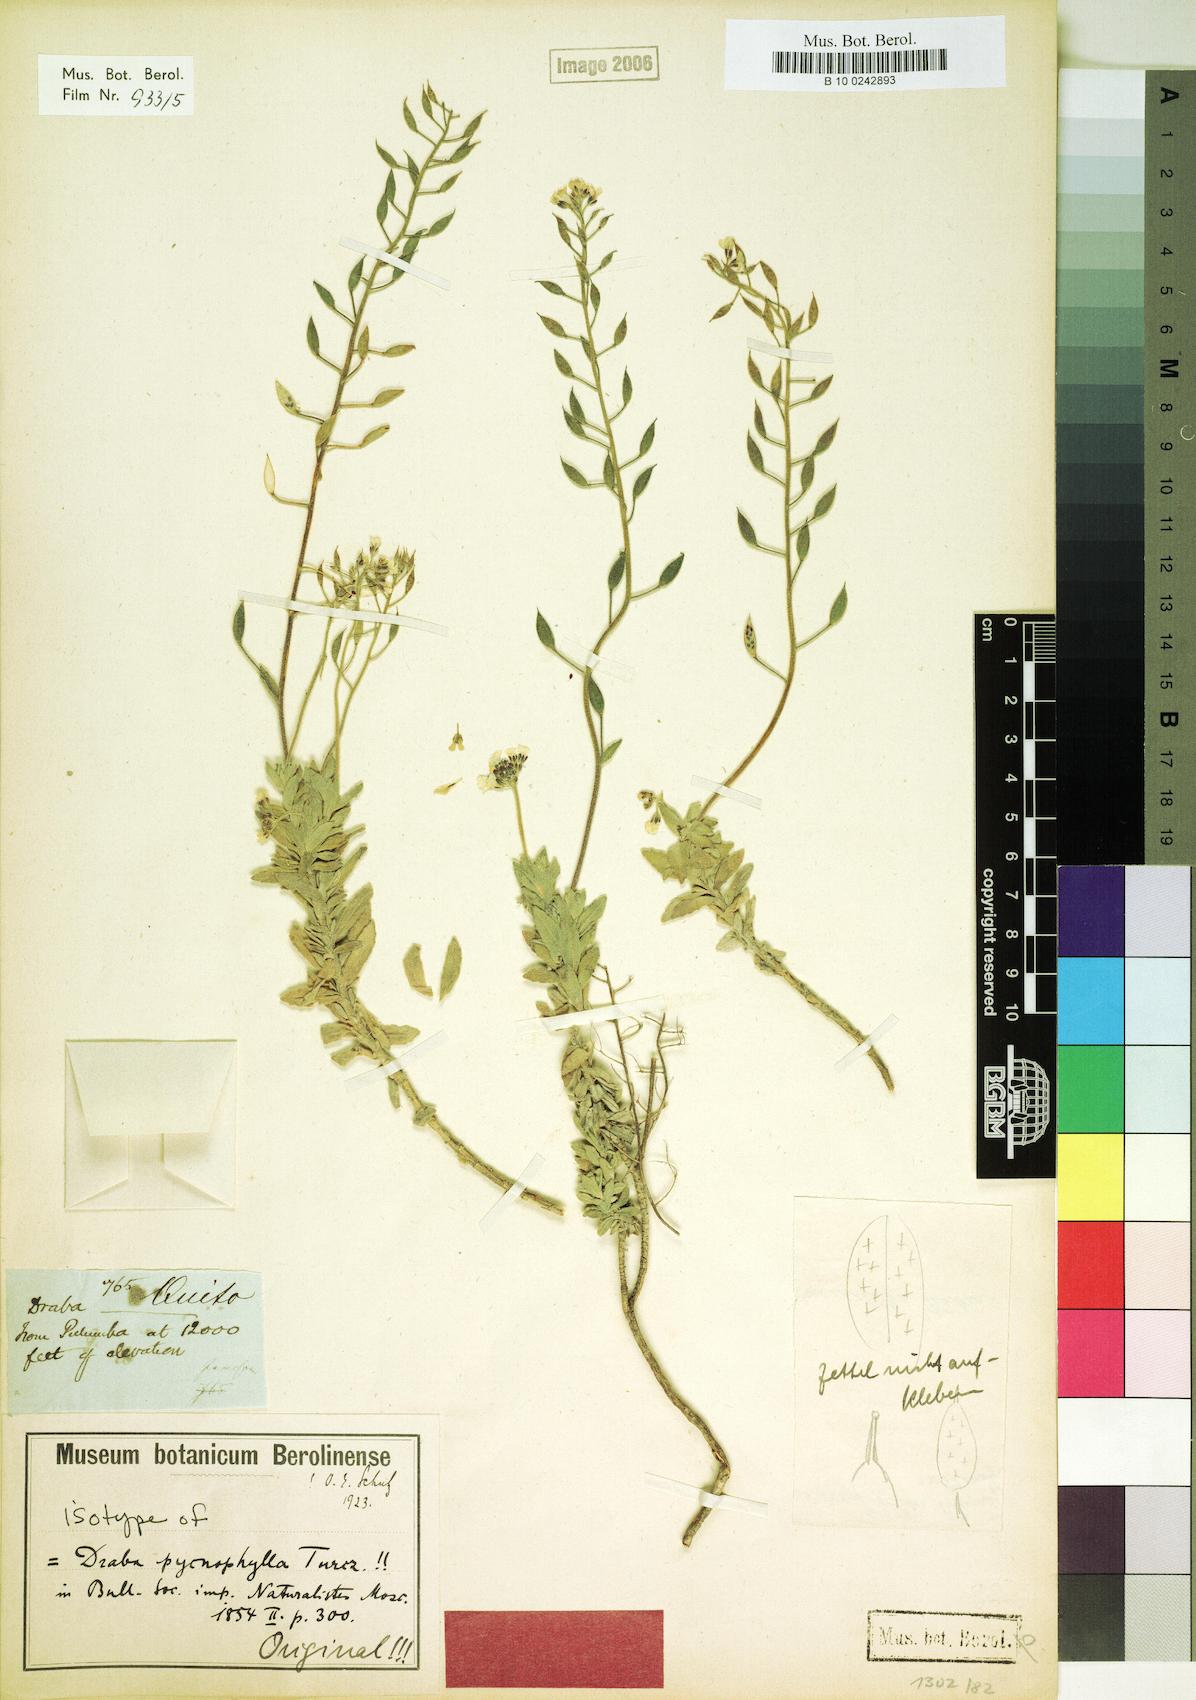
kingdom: Plantae
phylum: Tracheophyta
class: Magnoliopsida
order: Brassicales
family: Brassicaceae
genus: Draba
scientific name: Draba pycnophylla
